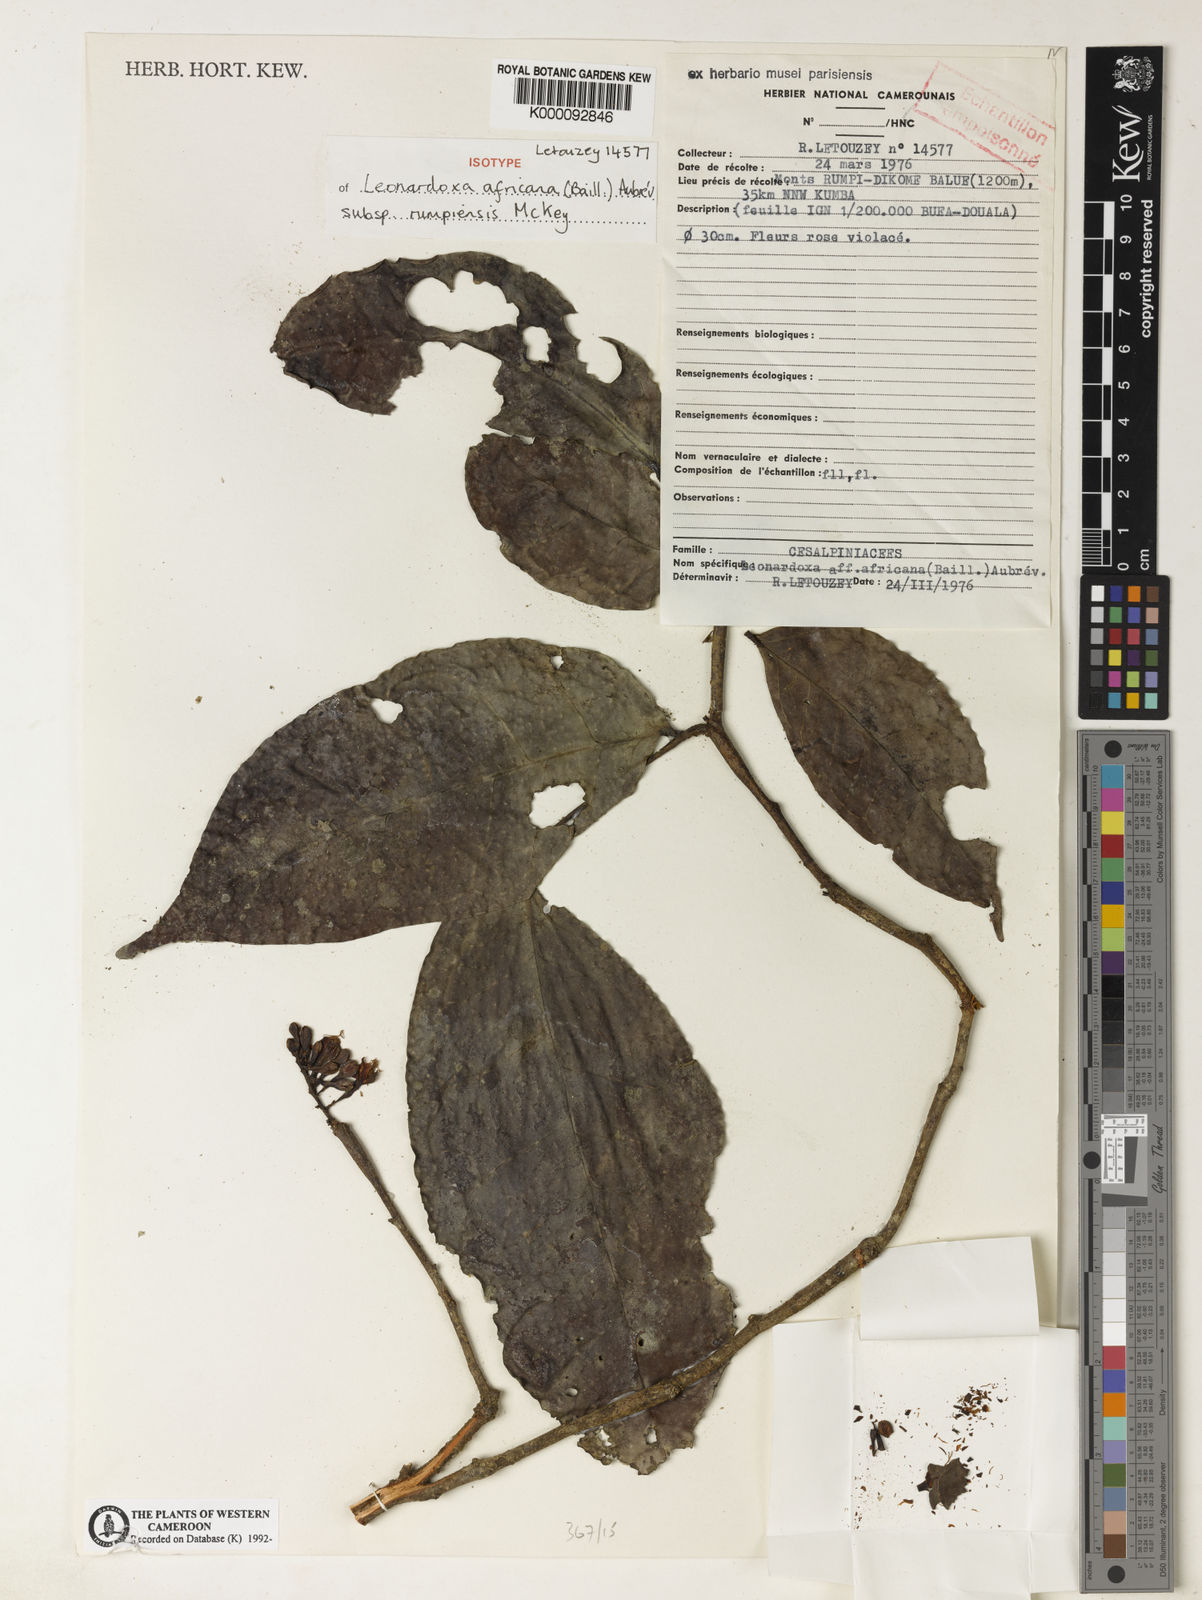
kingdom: Plantae
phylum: Tracheophyta
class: Magnoliopsida
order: Fabales
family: Fabaceae
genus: Leonardoxa
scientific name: Leonardoxa
